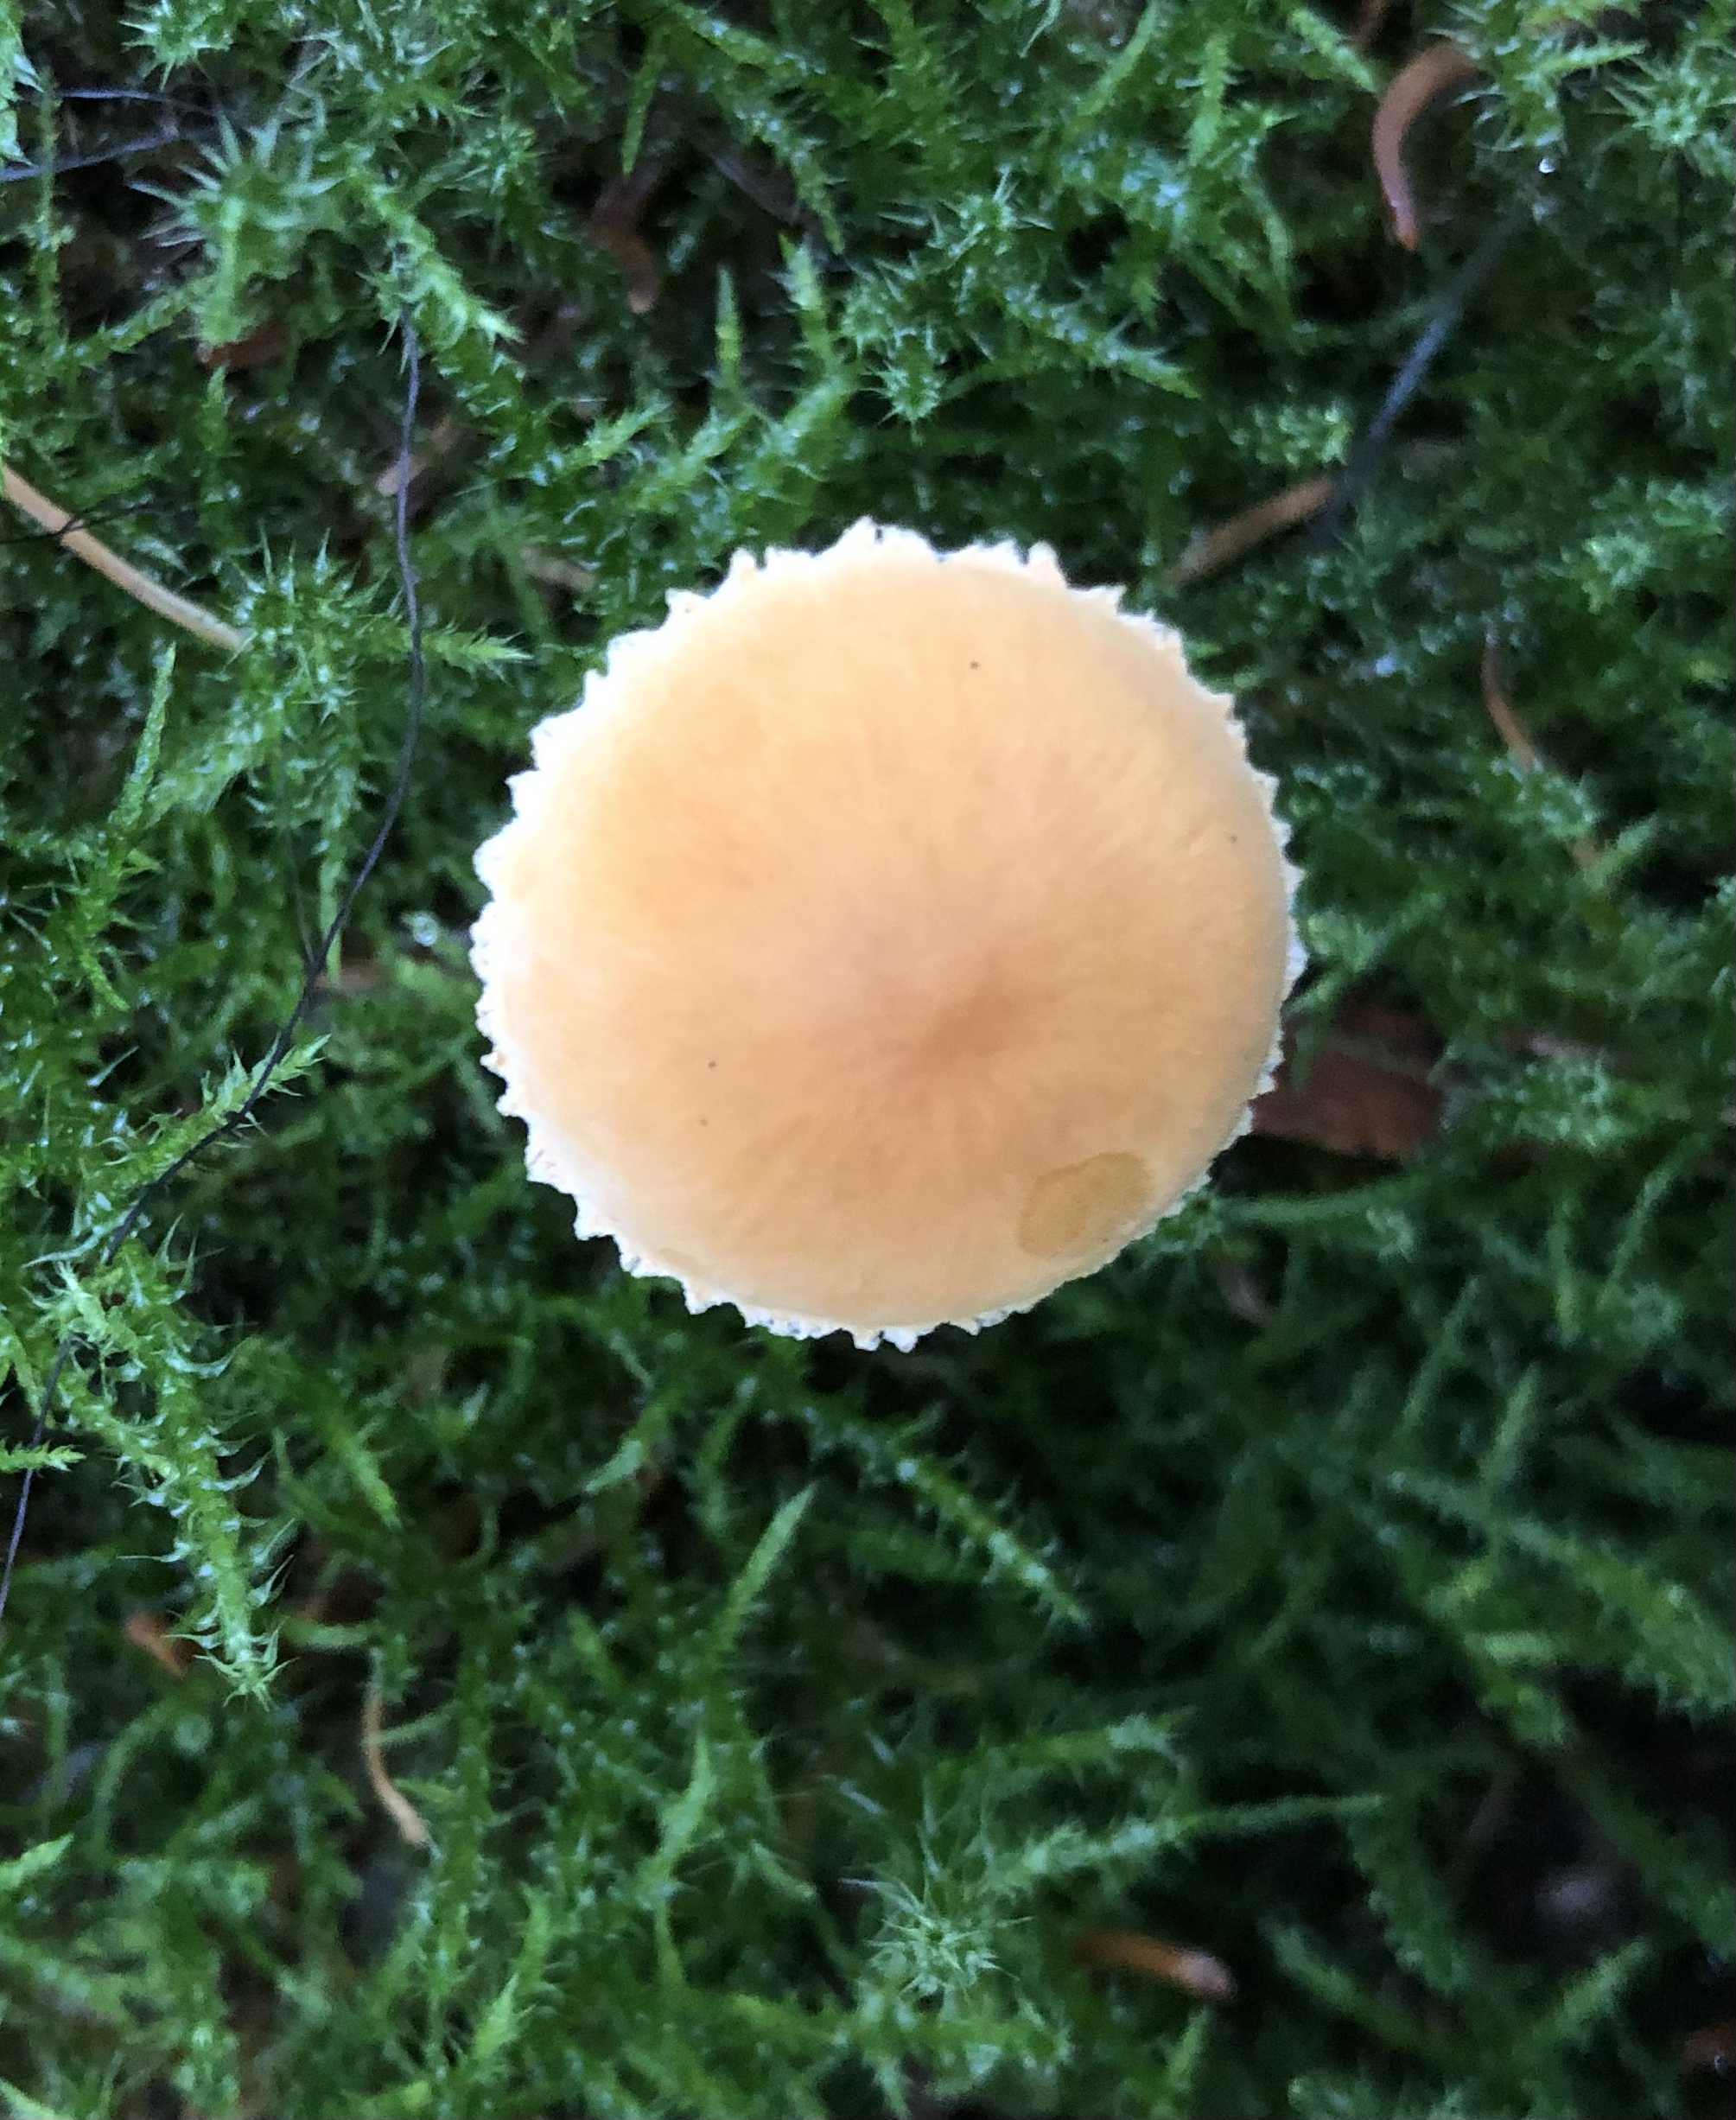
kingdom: Fungi
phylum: Basidiomycota
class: Agaricomycetes
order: Agaricales
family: Tricholomataceae
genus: Cystoderma
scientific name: Cystoderma amianthinum
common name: okkergul grynhat
